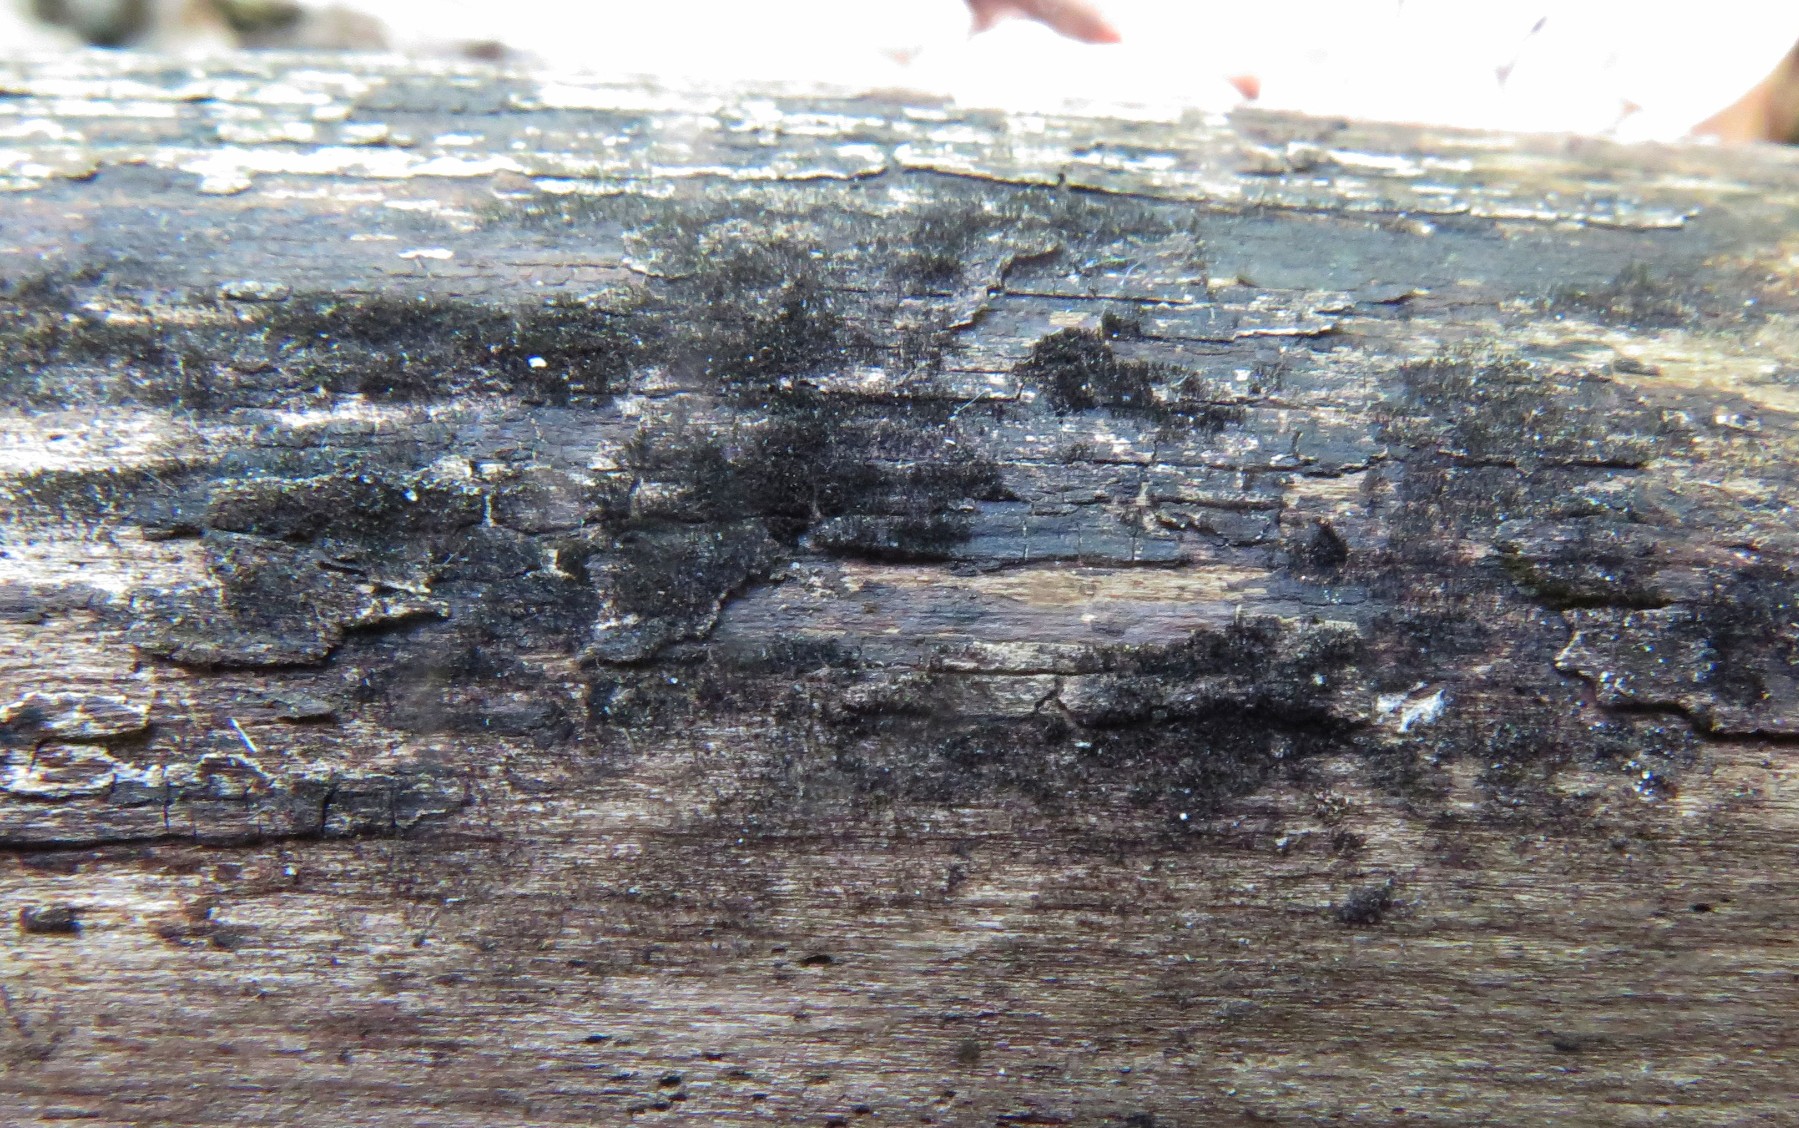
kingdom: Fungi
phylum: Ascomycota
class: Leotiomycetes
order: Helotiales
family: Helotiaceae
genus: Strossmayeria
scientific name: Strossmayeria basitricha
